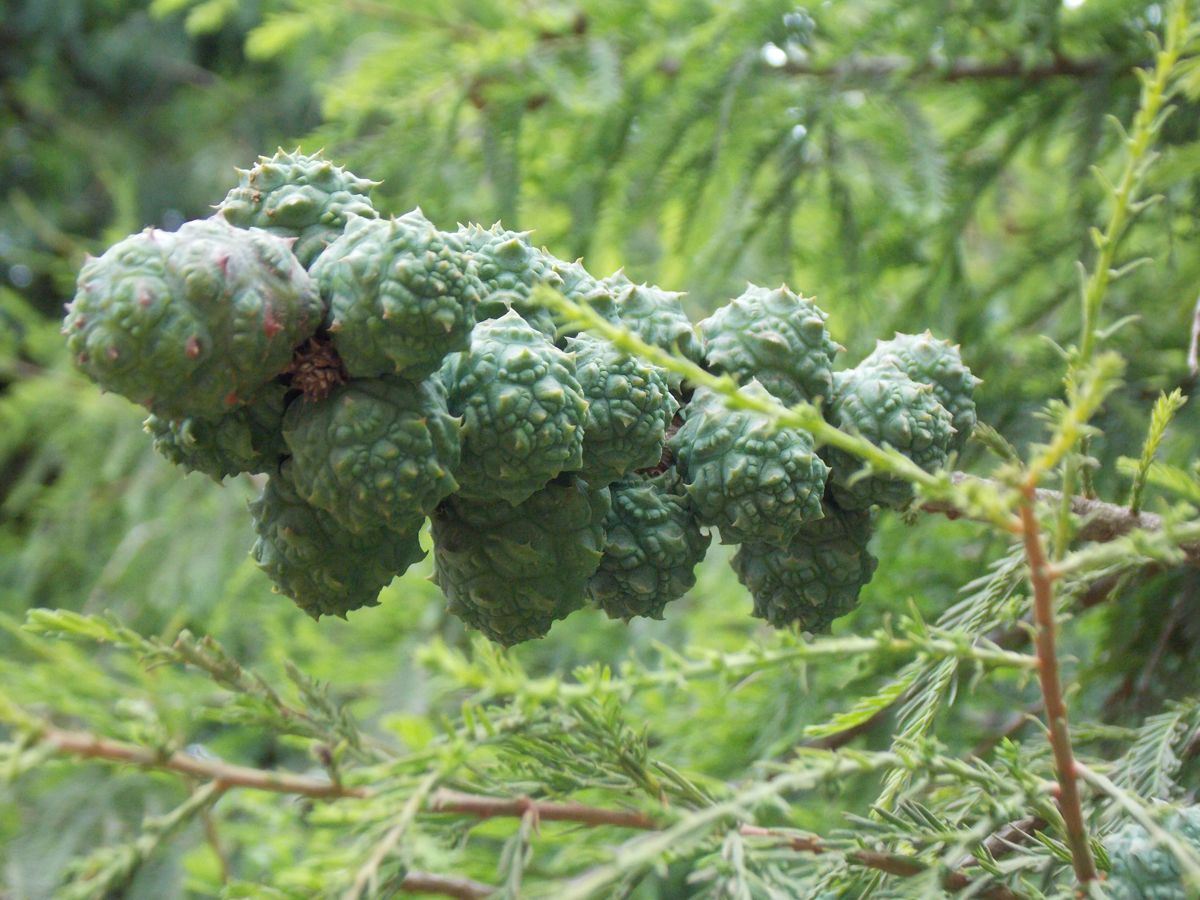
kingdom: Plantae
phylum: Tracheophyta
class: Pinopsida
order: Pinales
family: Cupressaceae
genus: Taxodium
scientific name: Taxodium mucronatum
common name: Montezume bald cypress
